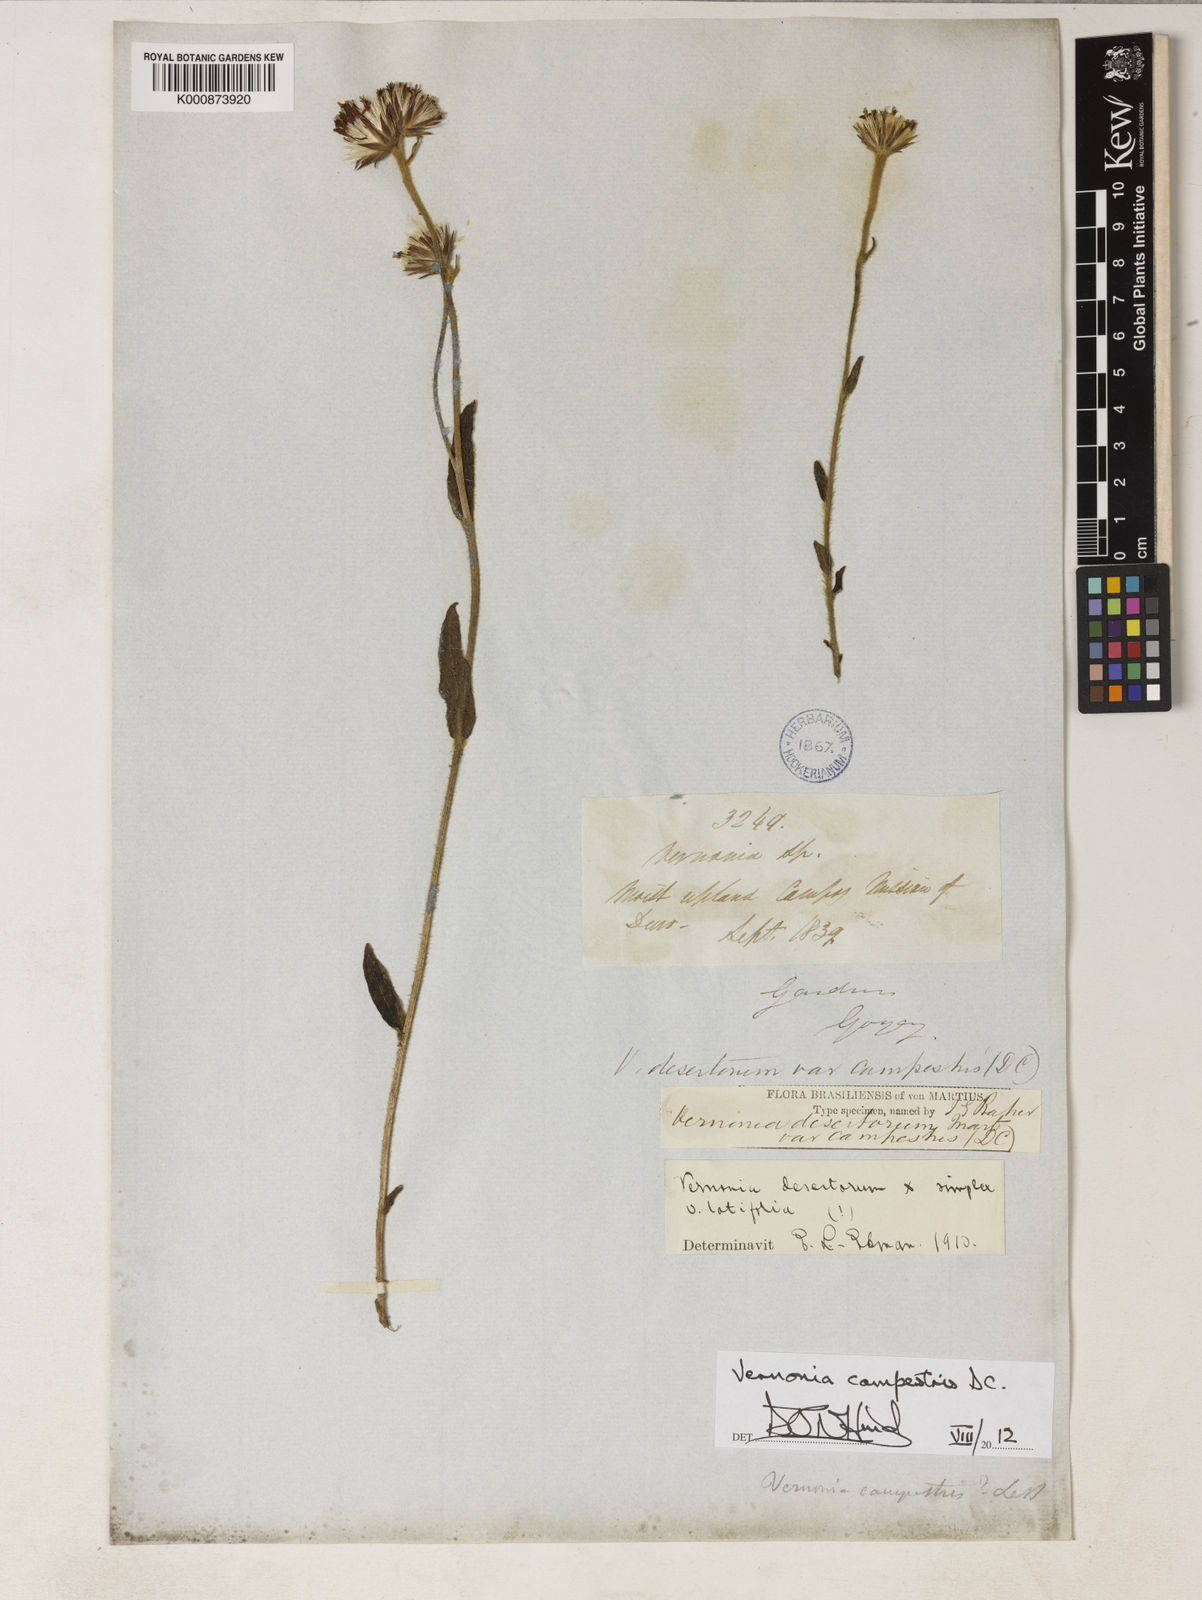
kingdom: Plantae
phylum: Tracheophyta
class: Magnoliopsida
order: Asterales
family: Asteraceae
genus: Chrysolaena
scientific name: Chrysolaena campestris
